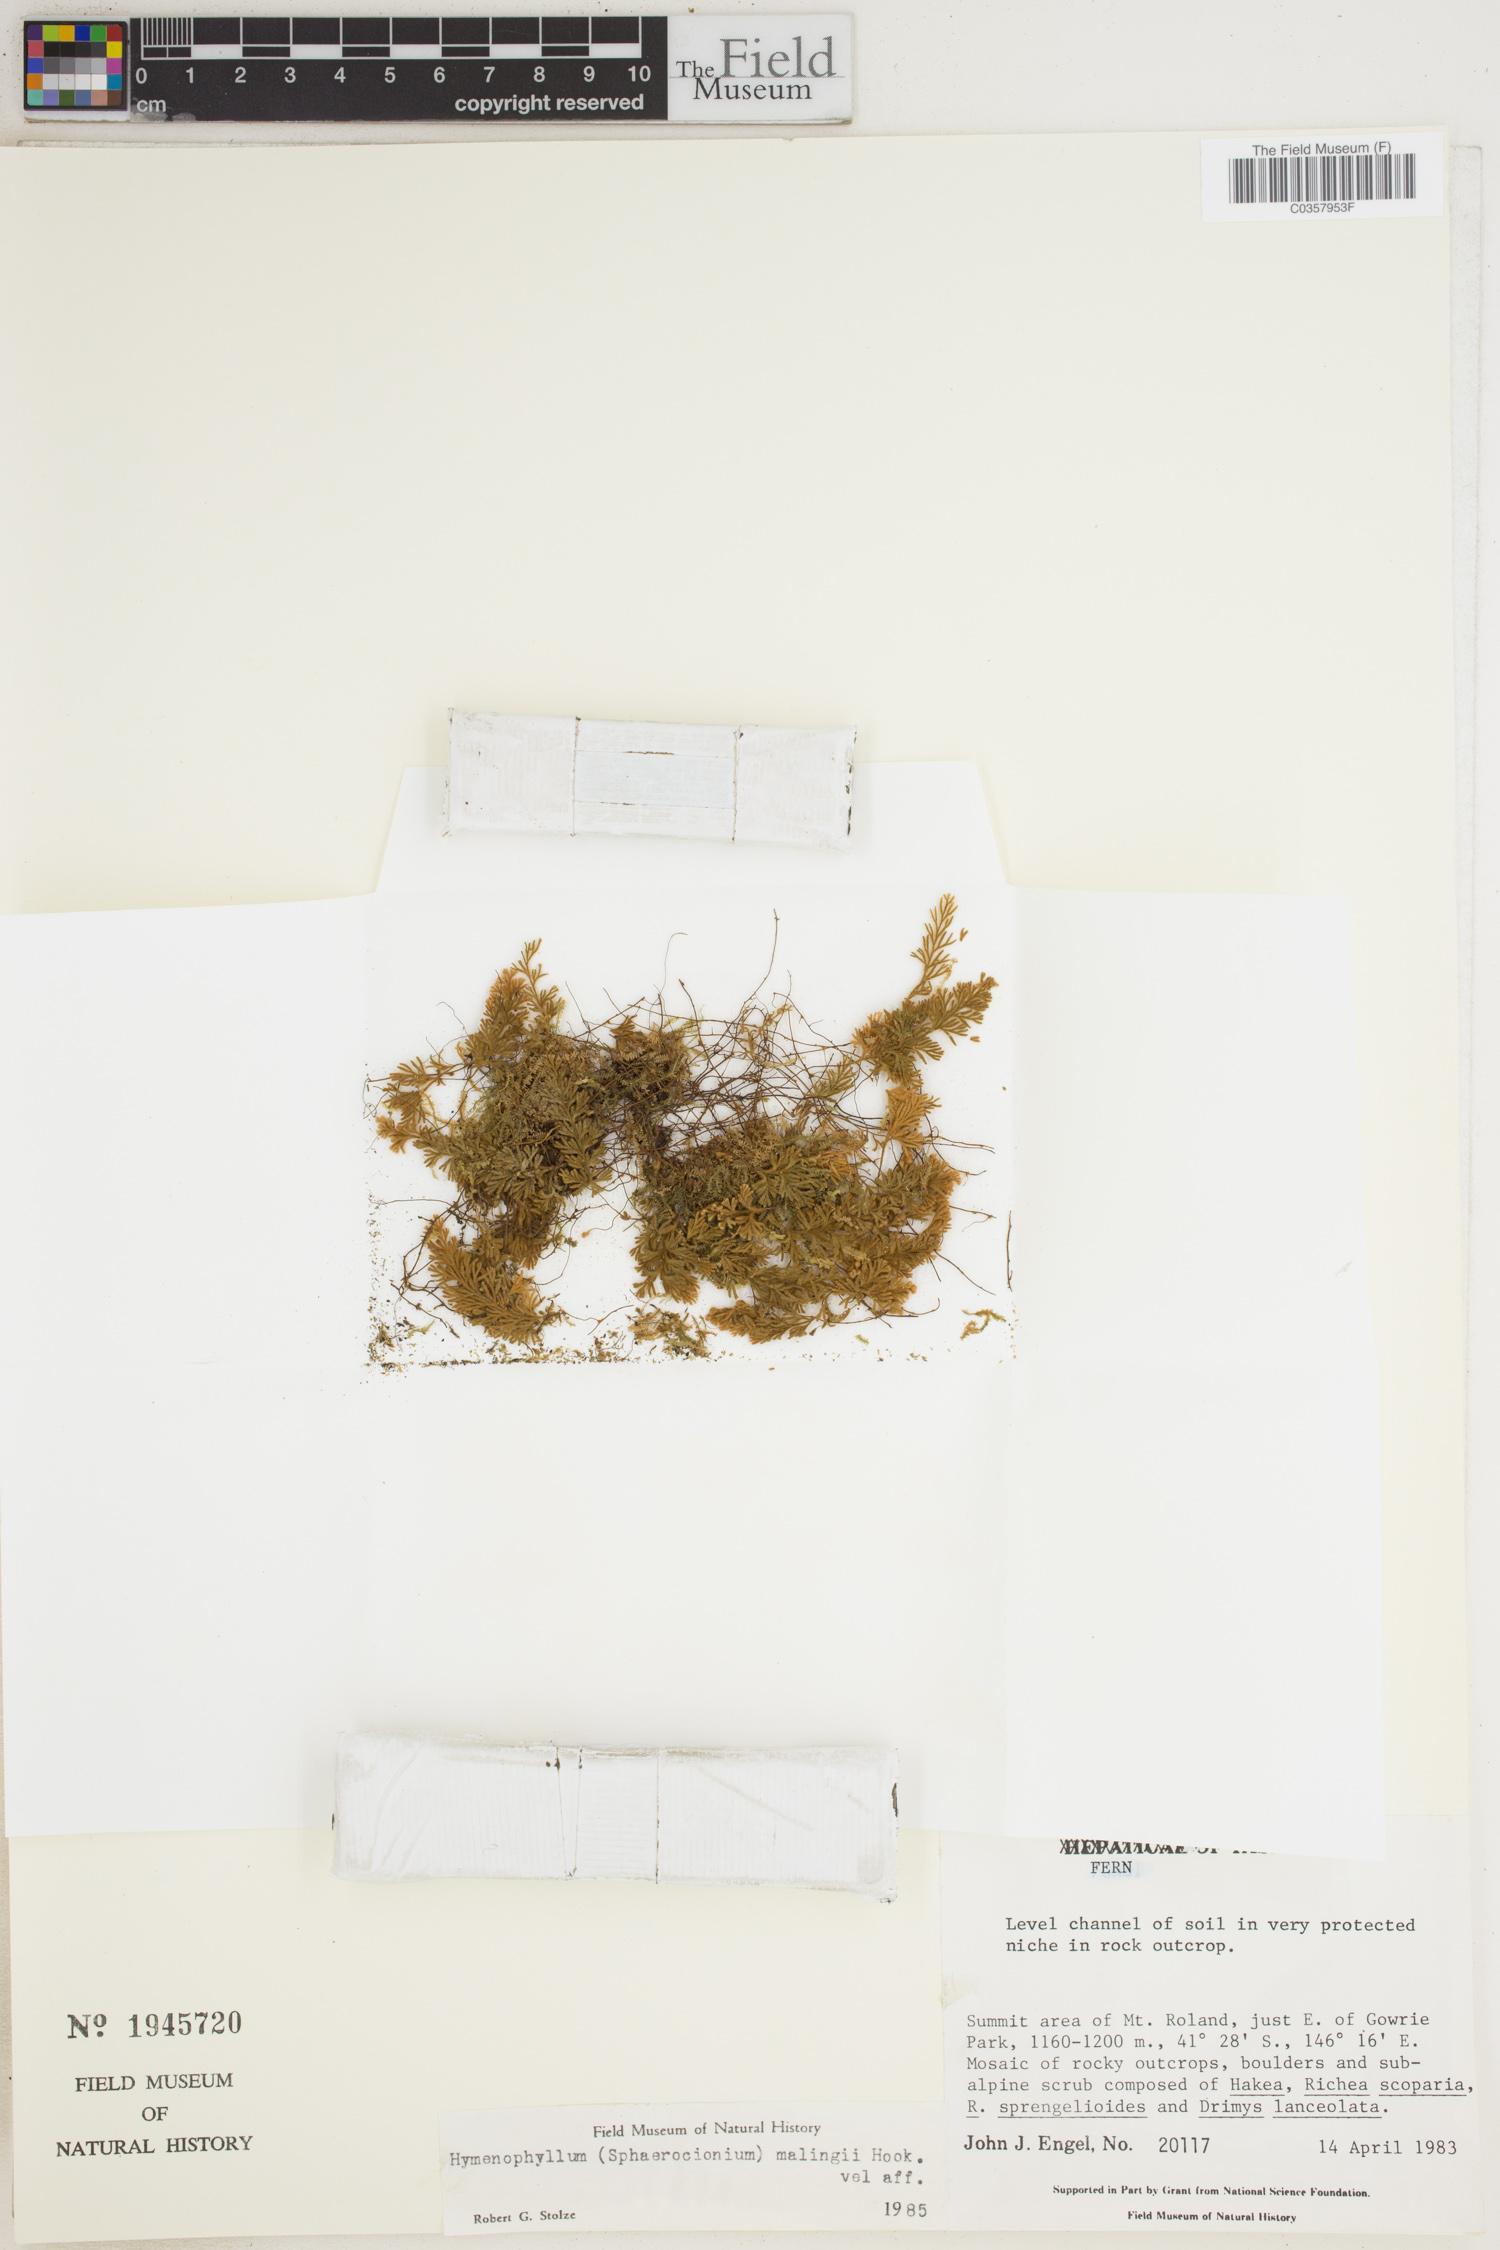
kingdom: Plantae
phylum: Tracheophyta
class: Polypodiopsida
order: Hymenophyllales
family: Hymenophyllaceae
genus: Hymenophyllum
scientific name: Hymenophyllum malingii
